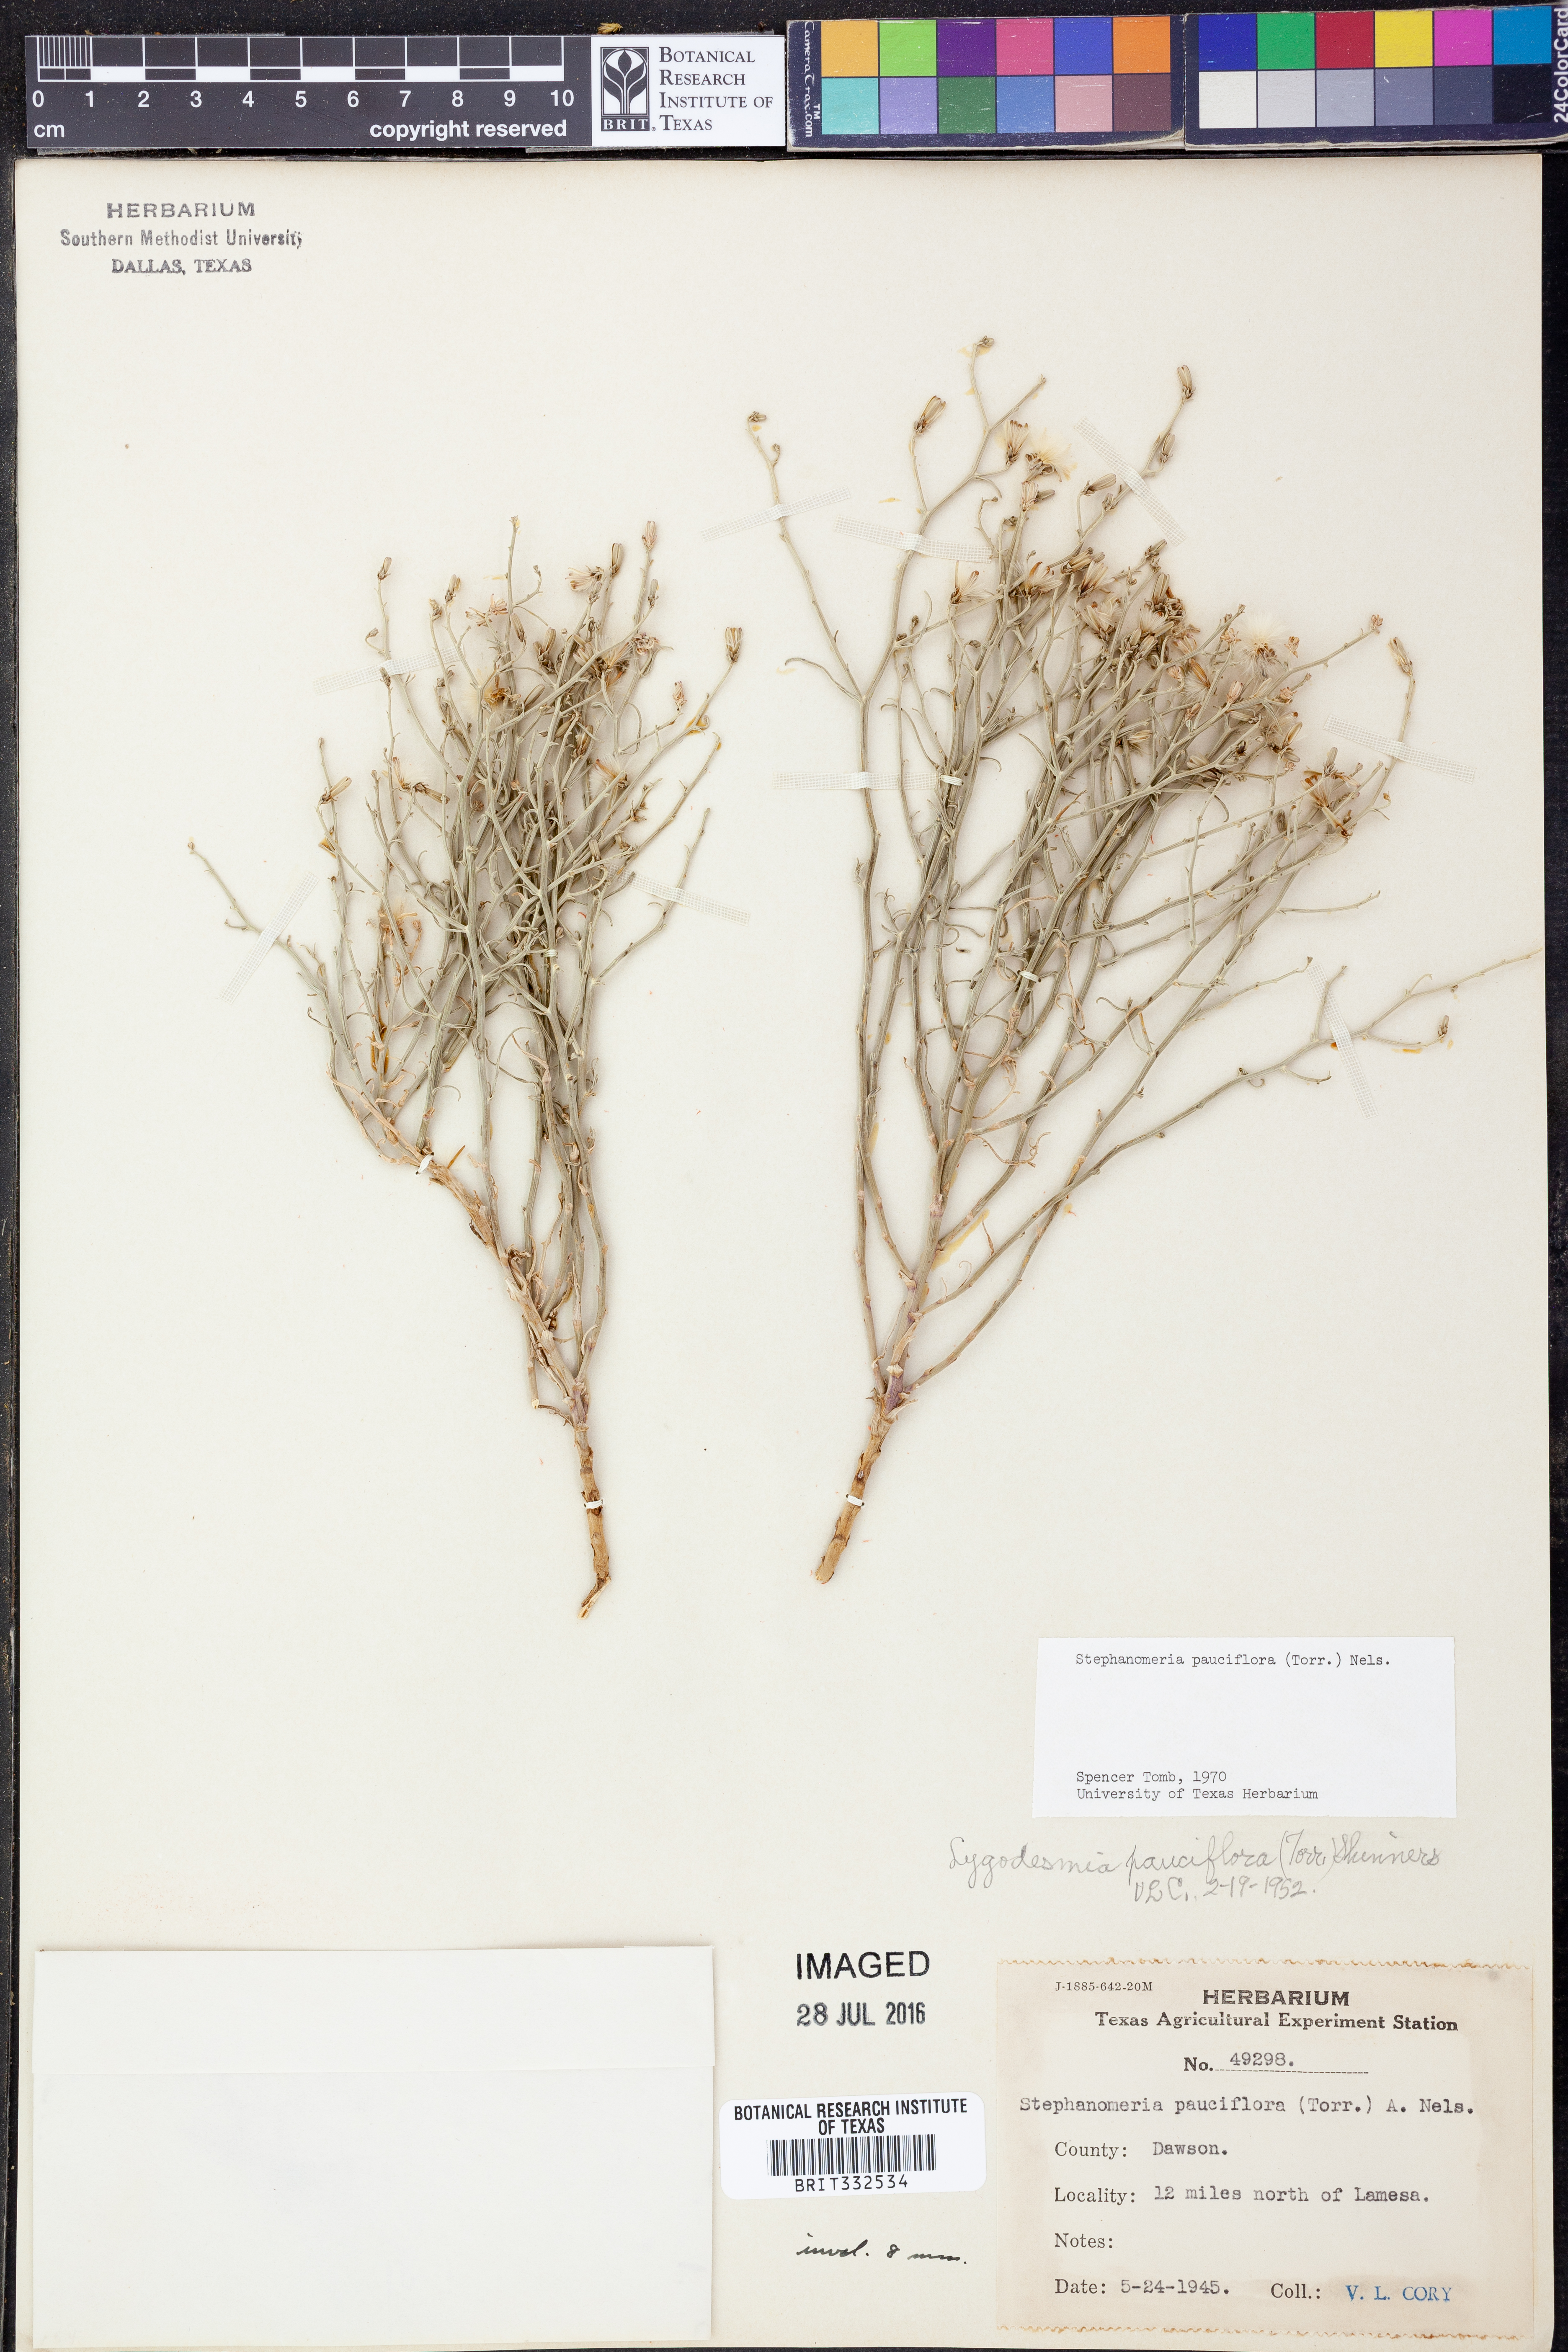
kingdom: Plantae
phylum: Tracheophyta
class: Magnoliopsida
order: Asterales
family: Asteraceae
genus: Stephanomeria
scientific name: Stephanomeria pauciflora
